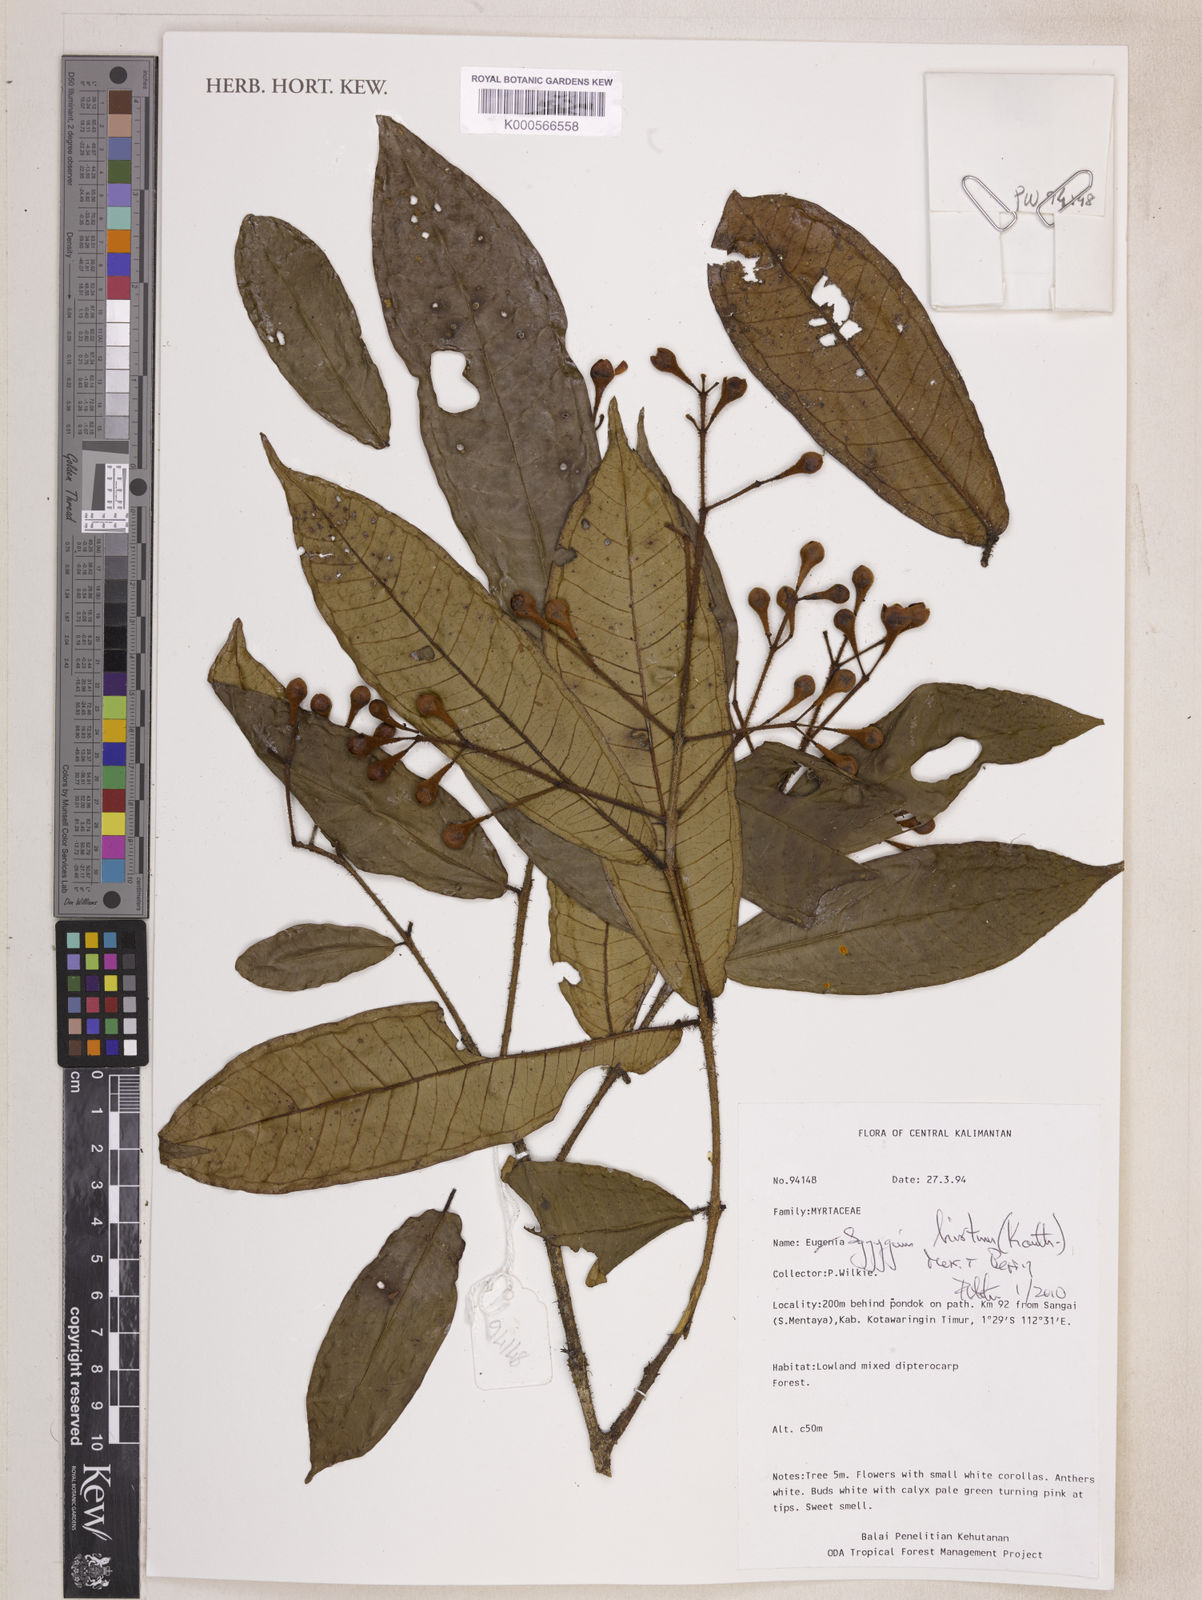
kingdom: Plantae
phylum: Tracheophyta
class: Magnoliopsida
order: Myrtales
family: Myrtaceae
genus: Syzygium
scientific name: Syzygium hirtum
